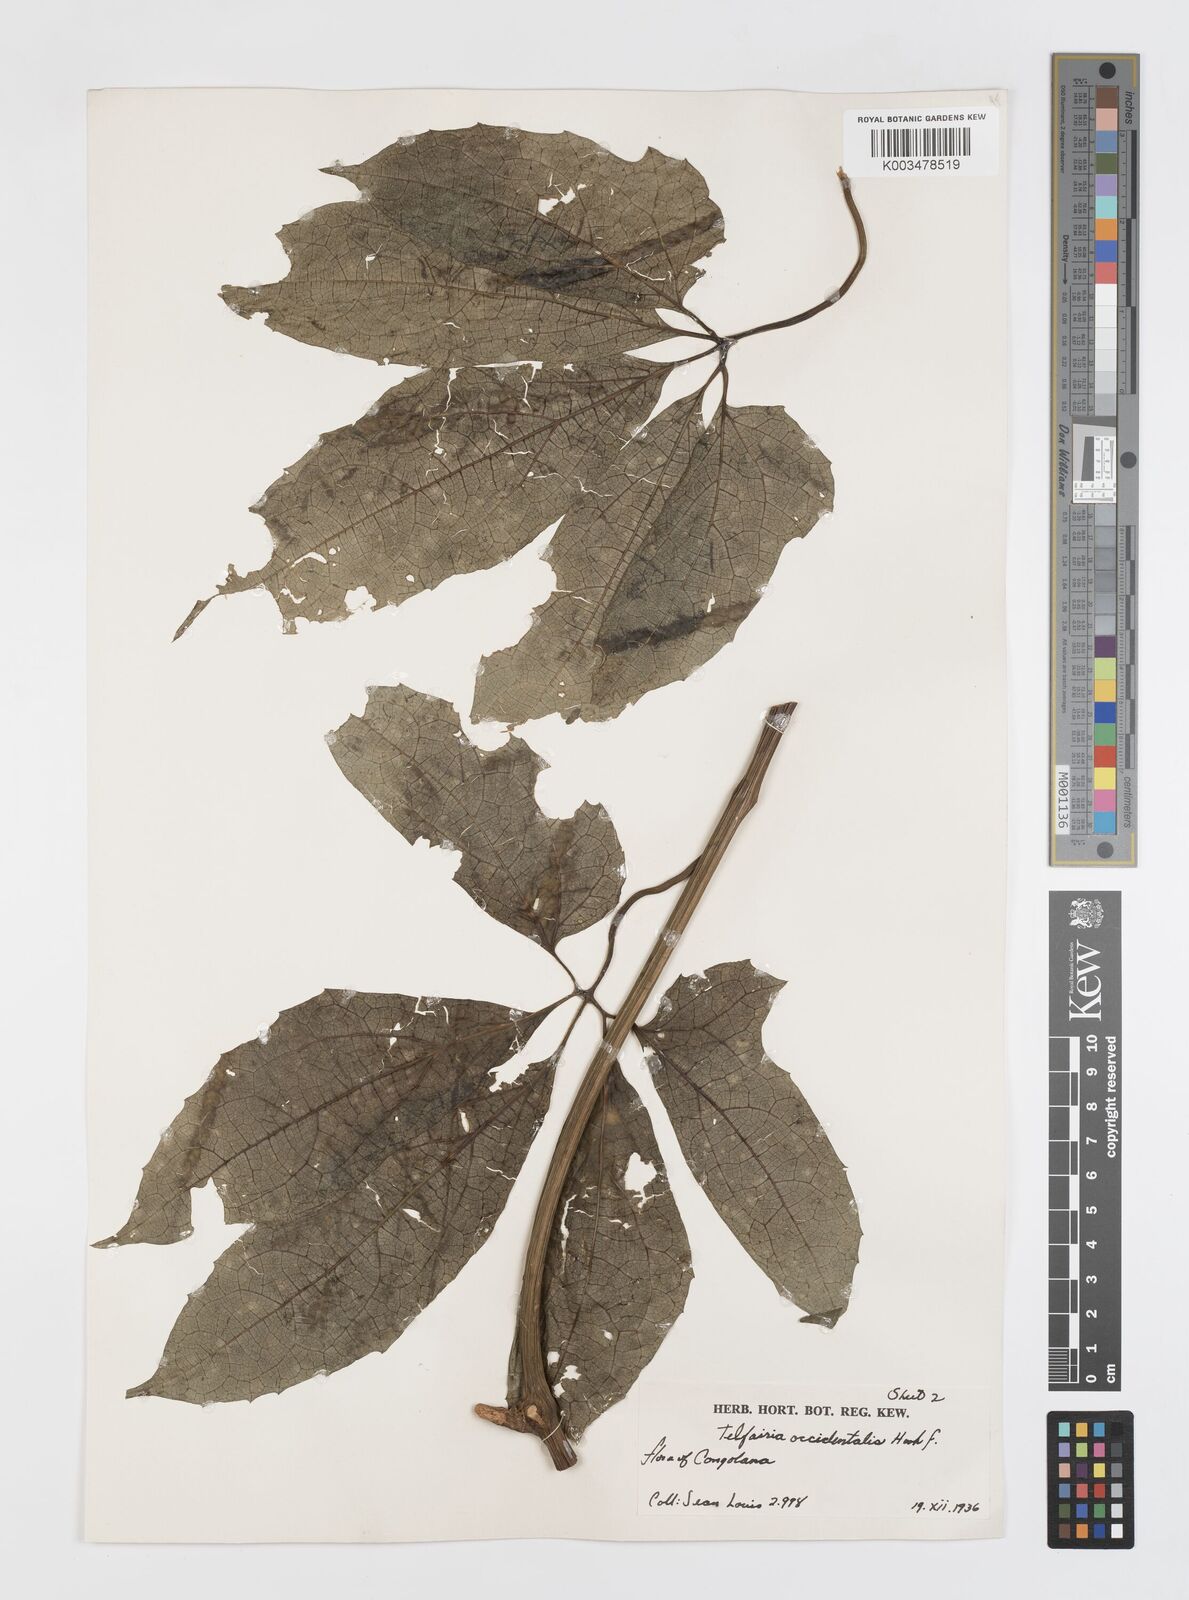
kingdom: Plantae
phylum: Tracheophyta
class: Magnoliopsida
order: Cucurbitales
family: Cucurbitaceae
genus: Telfairia
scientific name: Telfairia occidentalis
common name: Oysternut
